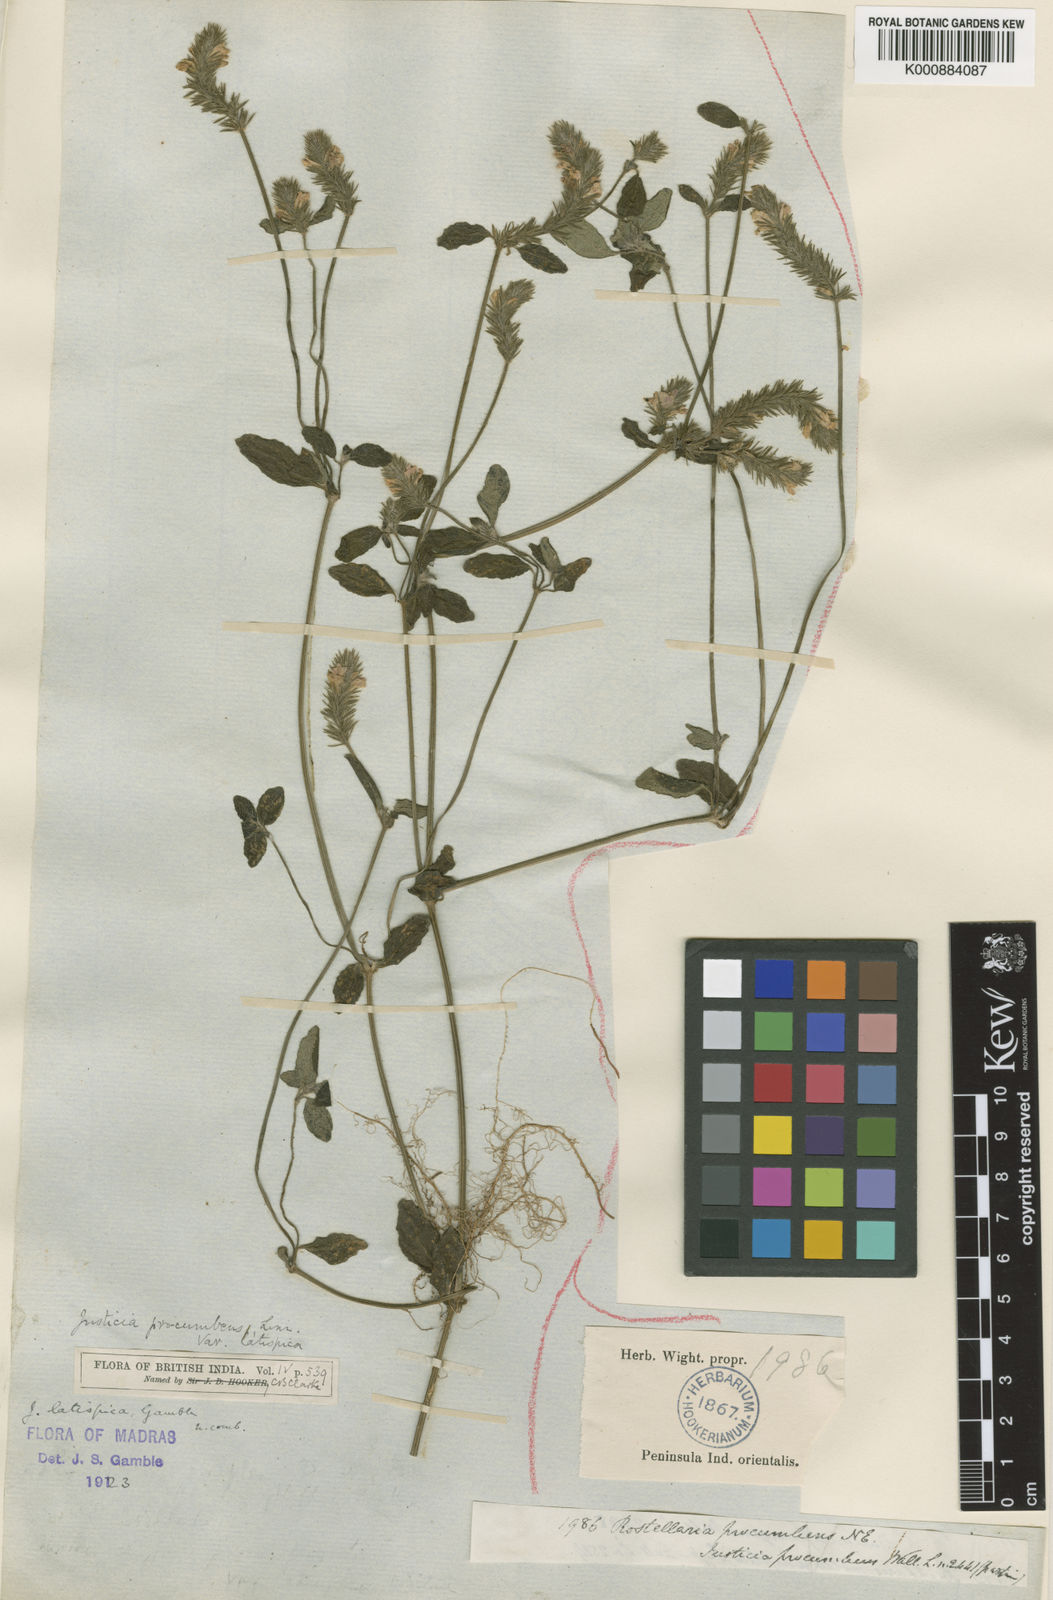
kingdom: Plantae
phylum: Tracheophyta
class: Magnoliopsida
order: Lamiales
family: Acanthaceae
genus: Justicia
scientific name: Justicia
